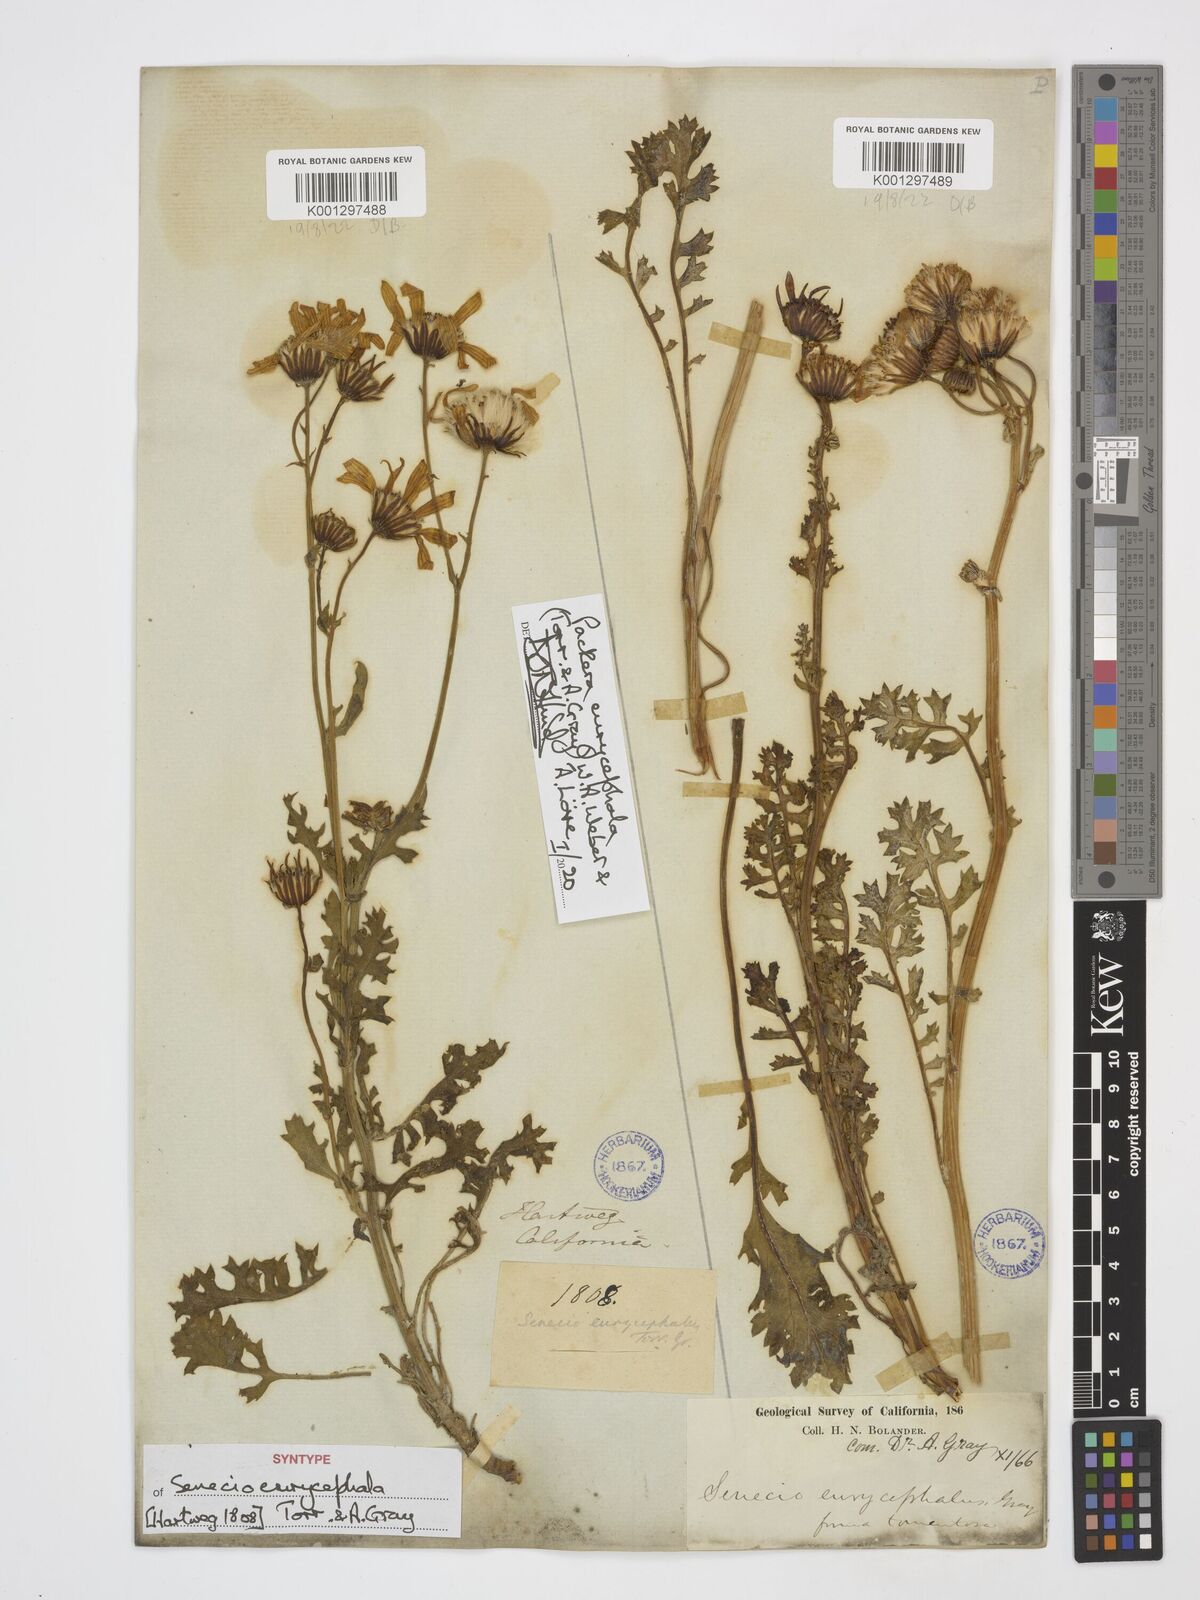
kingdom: Plantae
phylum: Tracheophyta
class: Magnoliopsida
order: Asterales
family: Asteraceae
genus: Packera
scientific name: Packera eurycephala
